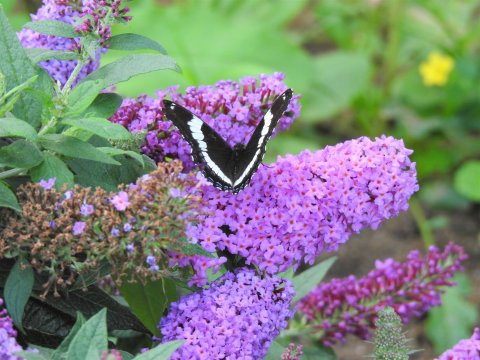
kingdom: Animalia
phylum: Arthropoda
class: Insecta
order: Lepidoptera
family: Nymphalidae
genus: Limenitis
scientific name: Limenitis arthemis
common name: Red-spotted Admiral
